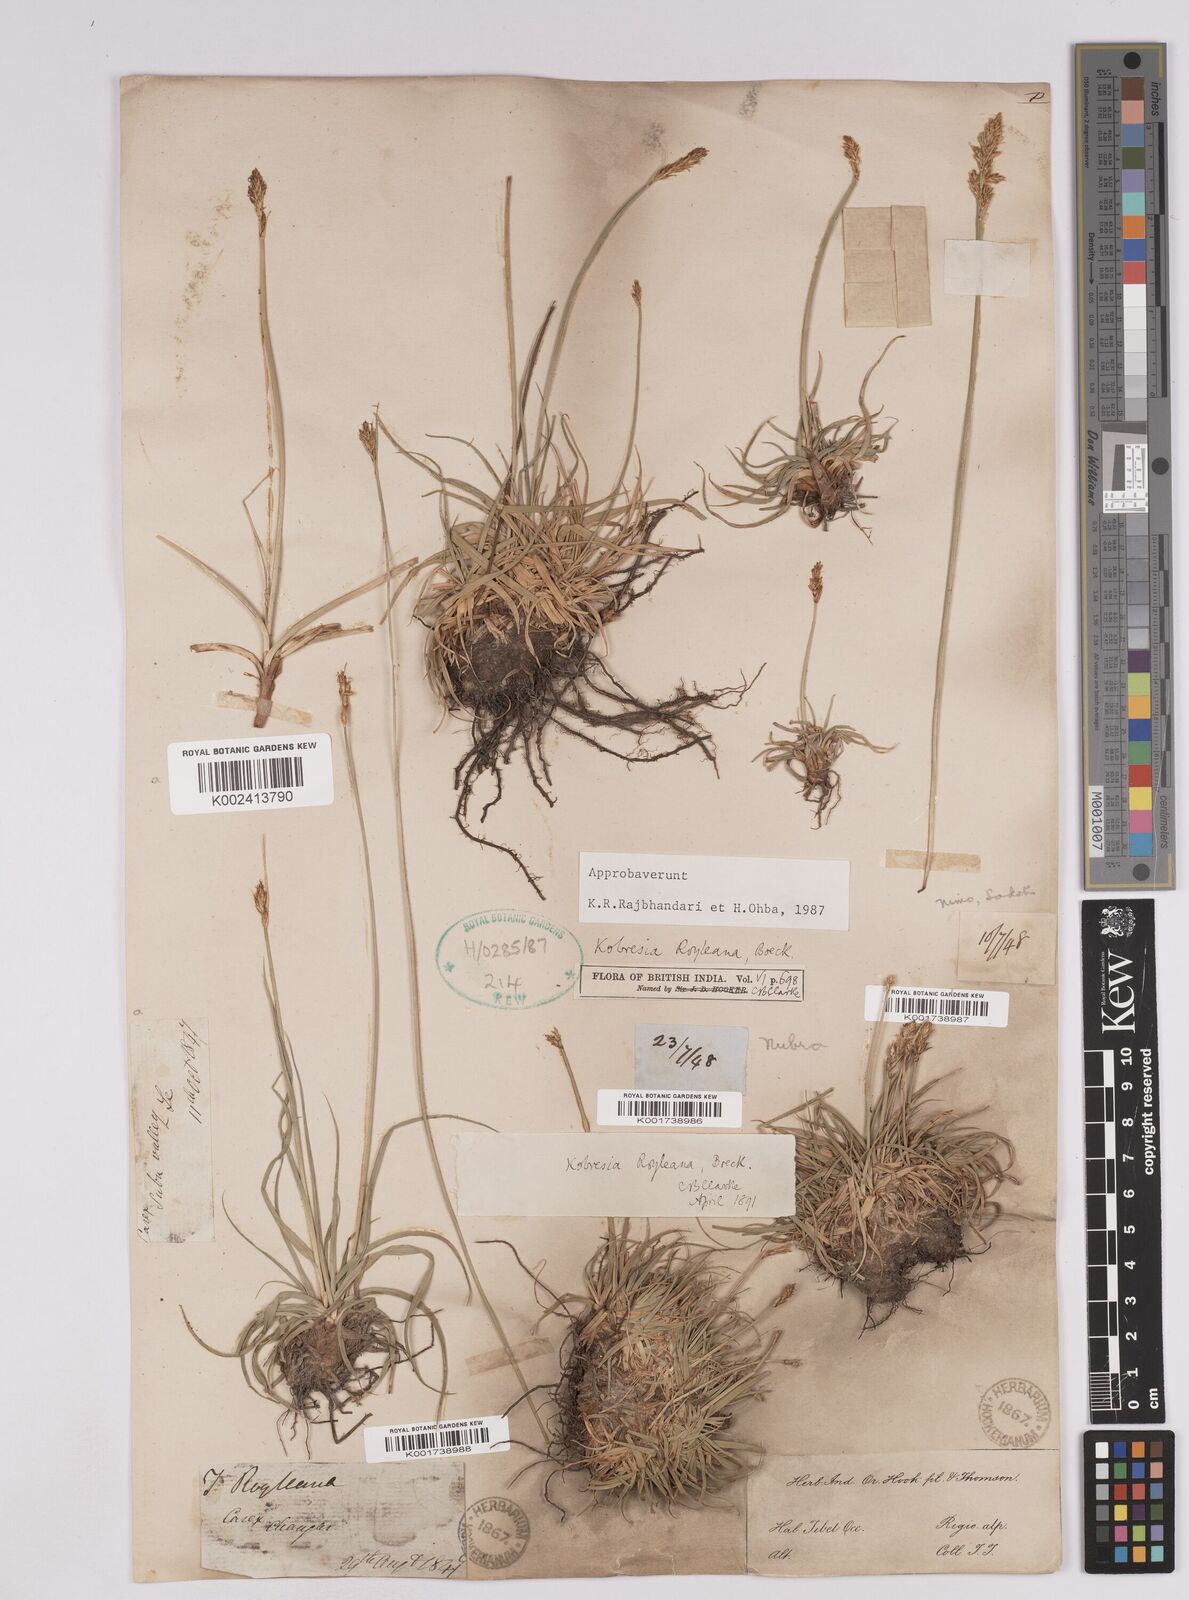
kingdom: Plantae
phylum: Tracheophyta
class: Liliopsida
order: Poales
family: Cyperaceae
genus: Carex
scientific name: Carex kokanica
